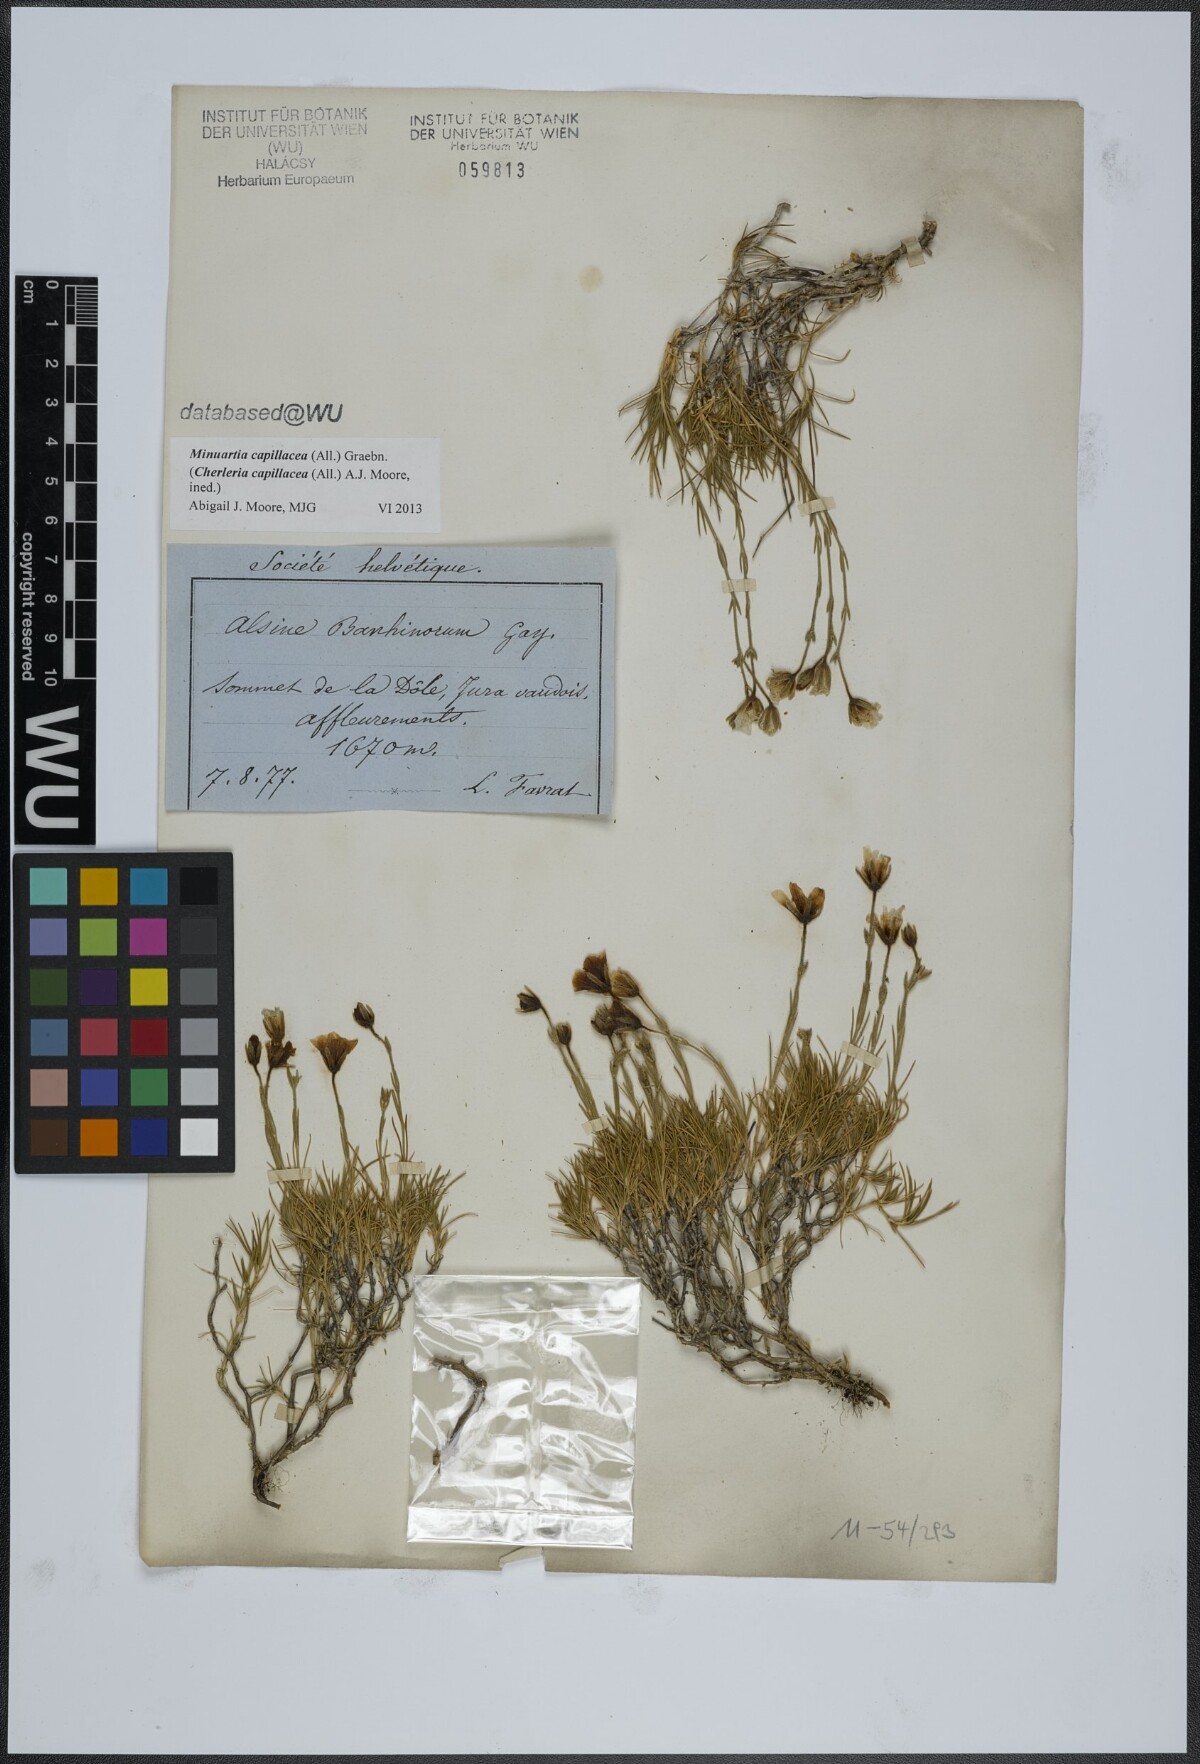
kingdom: Plantae
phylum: Tracheophyta
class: Magnoliopsida
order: Caryophyllales
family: Caryophyllaceae
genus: Cherleria
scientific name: Cherleria capillacea
